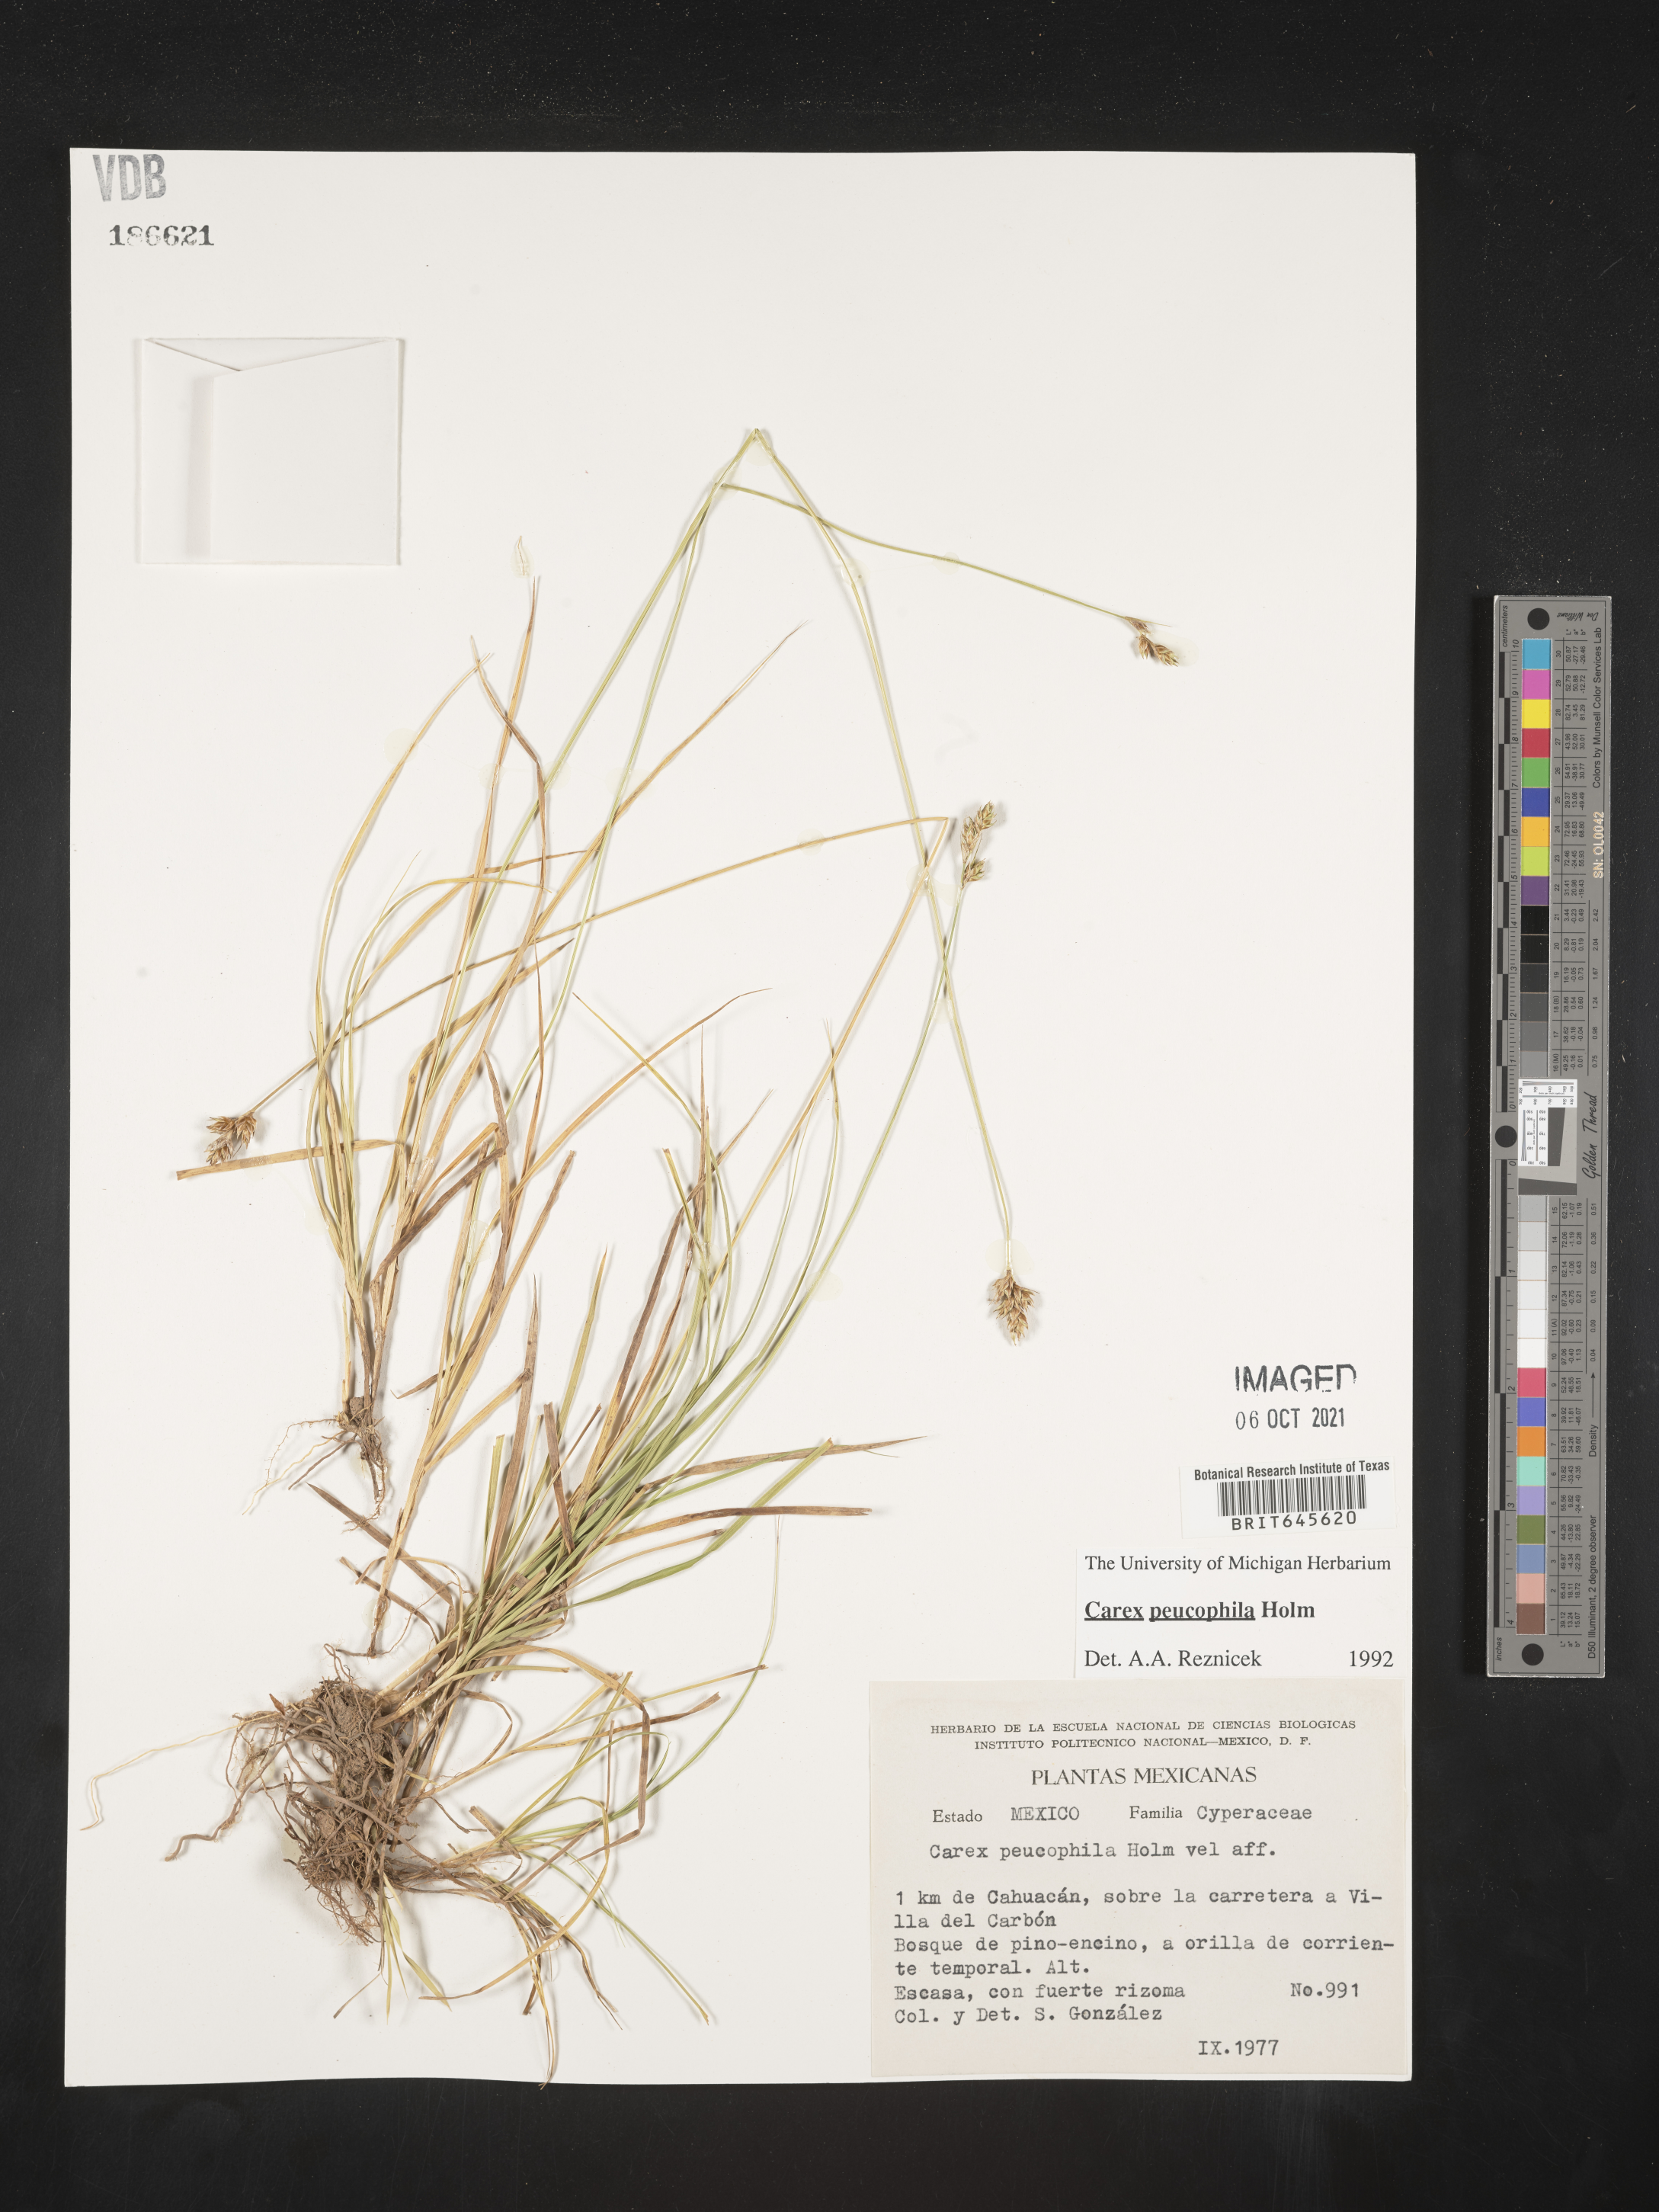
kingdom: Plantae
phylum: Tracheophyta
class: Liliopsida
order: Poales
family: Cyperaceae
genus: Carex
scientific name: Carex
